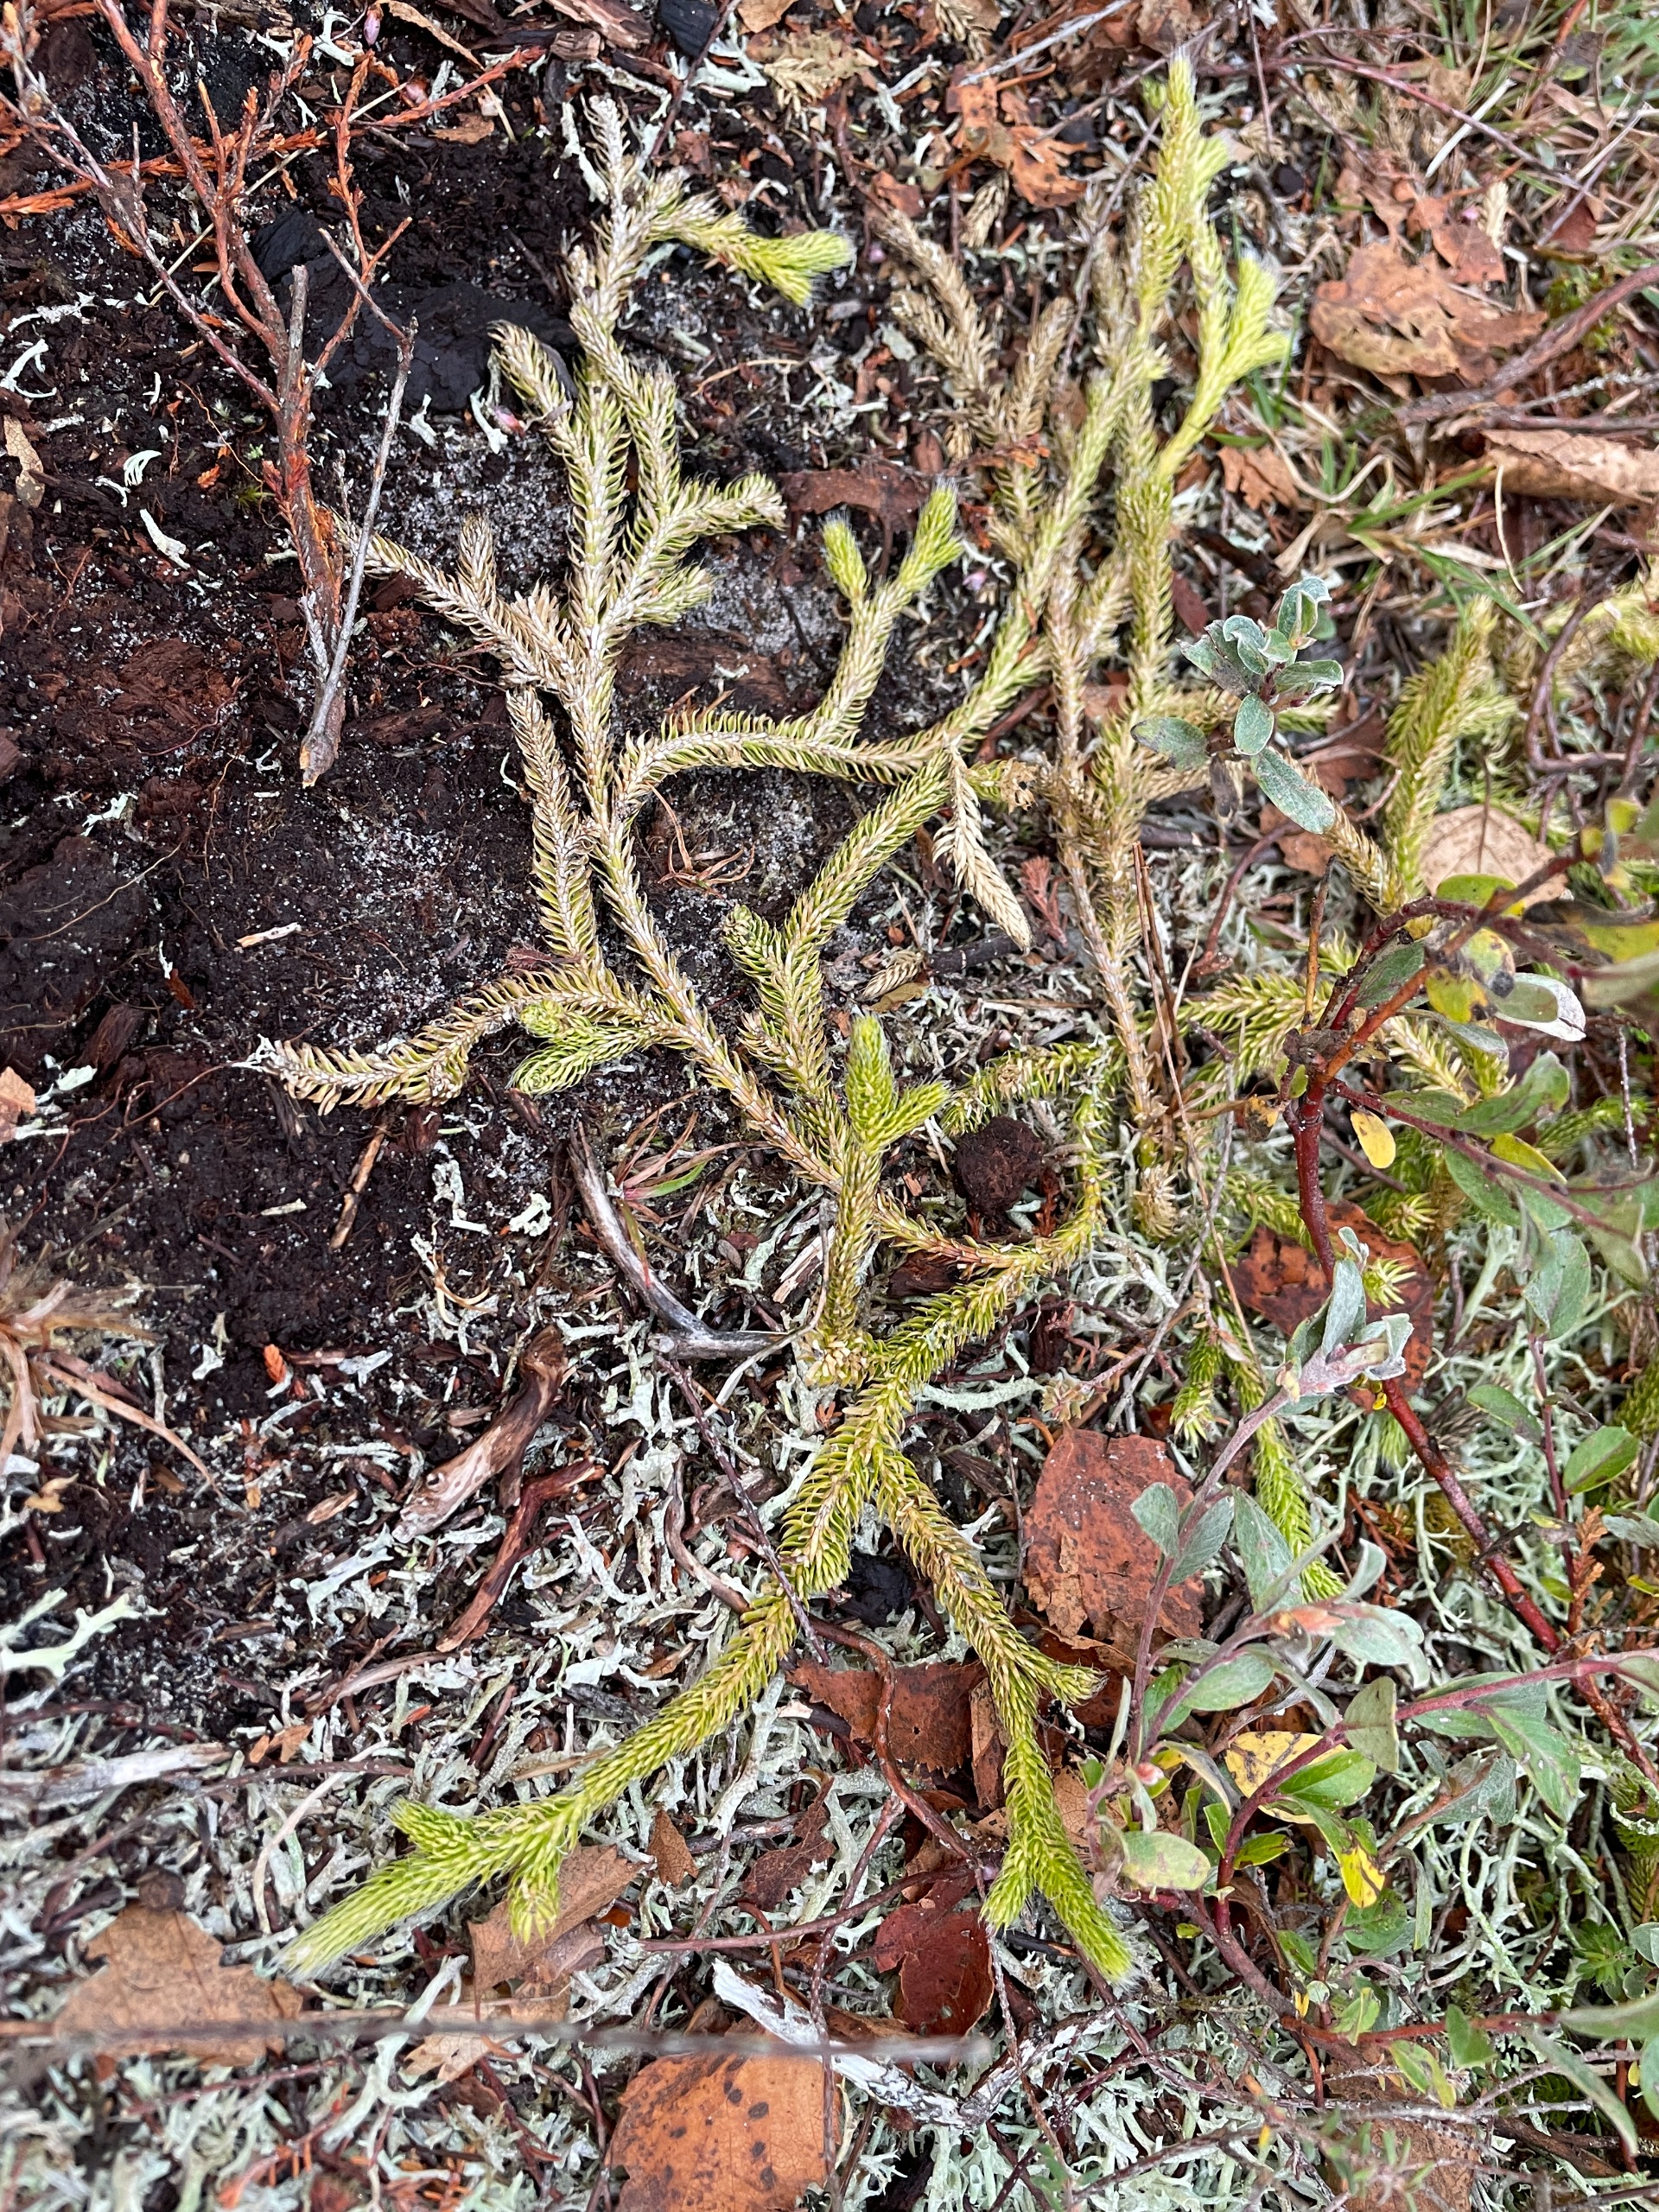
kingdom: Plantae
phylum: Tracheophyta
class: Lycopodiopsida
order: Lycopodiales
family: Lycopodiaceae
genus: Lycopodium
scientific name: Lycopodium clavatum
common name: Almindelig ulvefod
